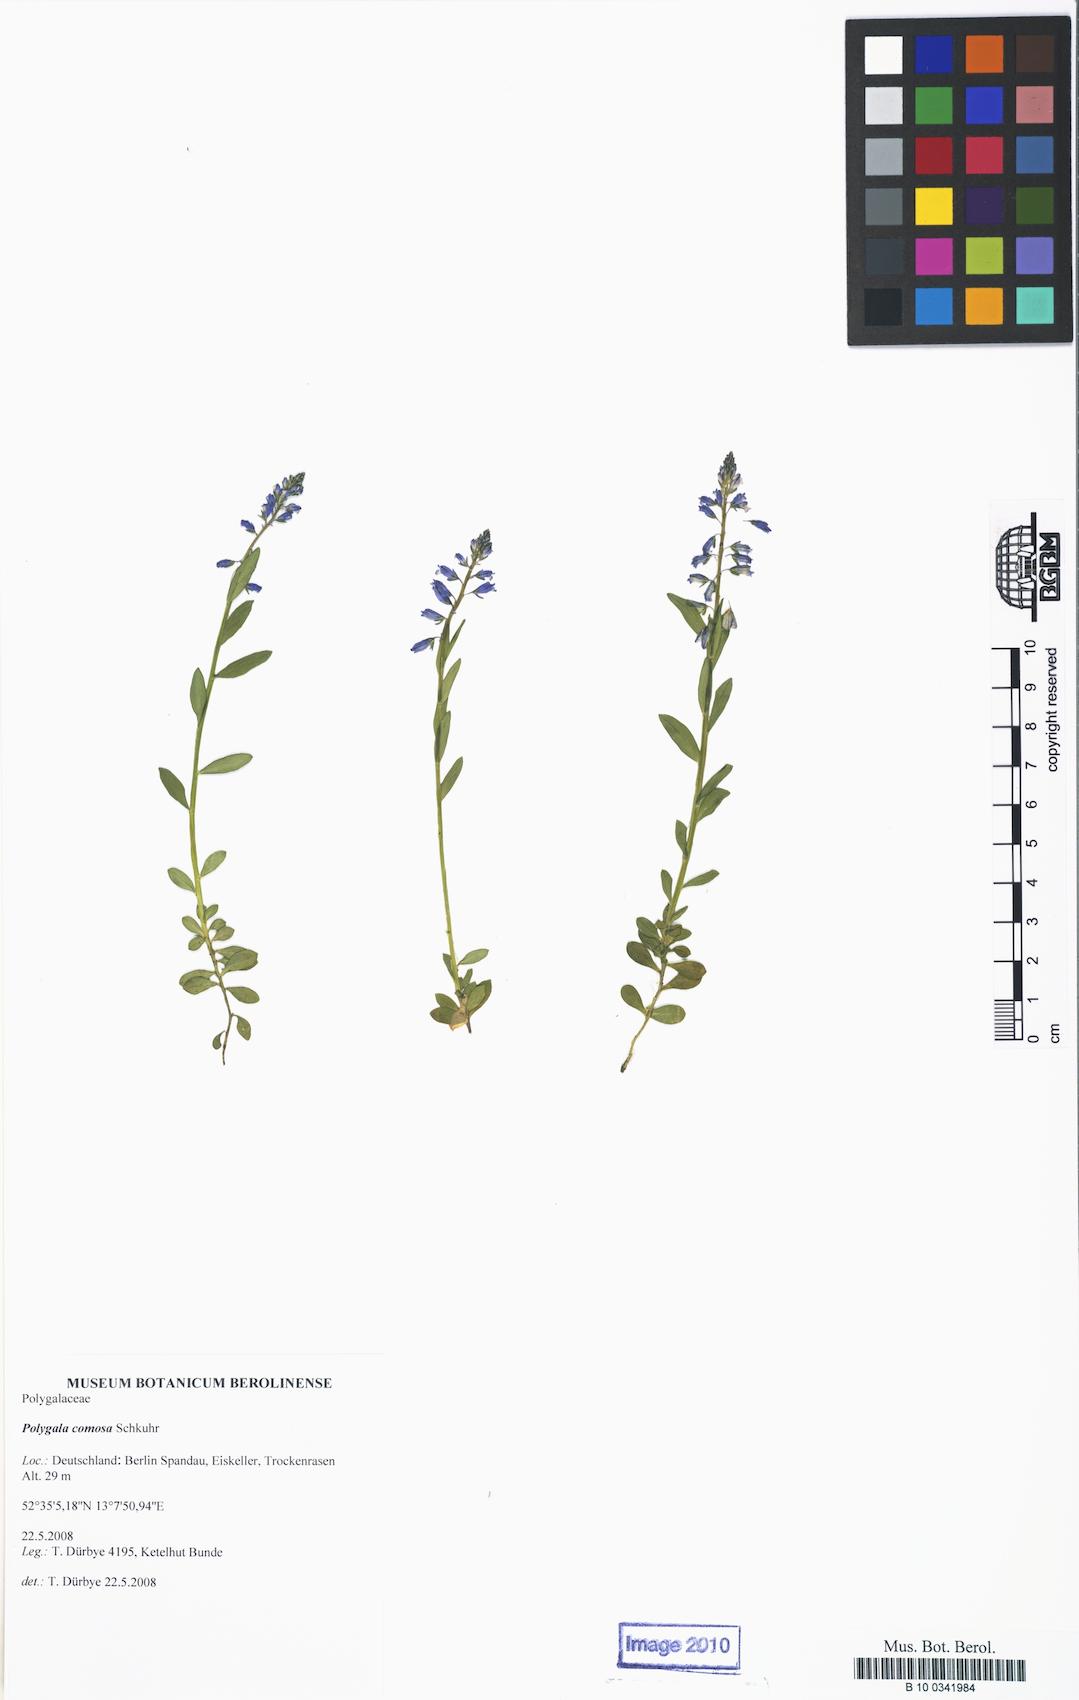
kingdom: Plantae
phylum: Tracheophyta
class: Magnoliopsida
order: Fabales
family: Polygalaceae
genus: Polygala
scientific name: Polygala comosa
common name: Tufted milkwort
